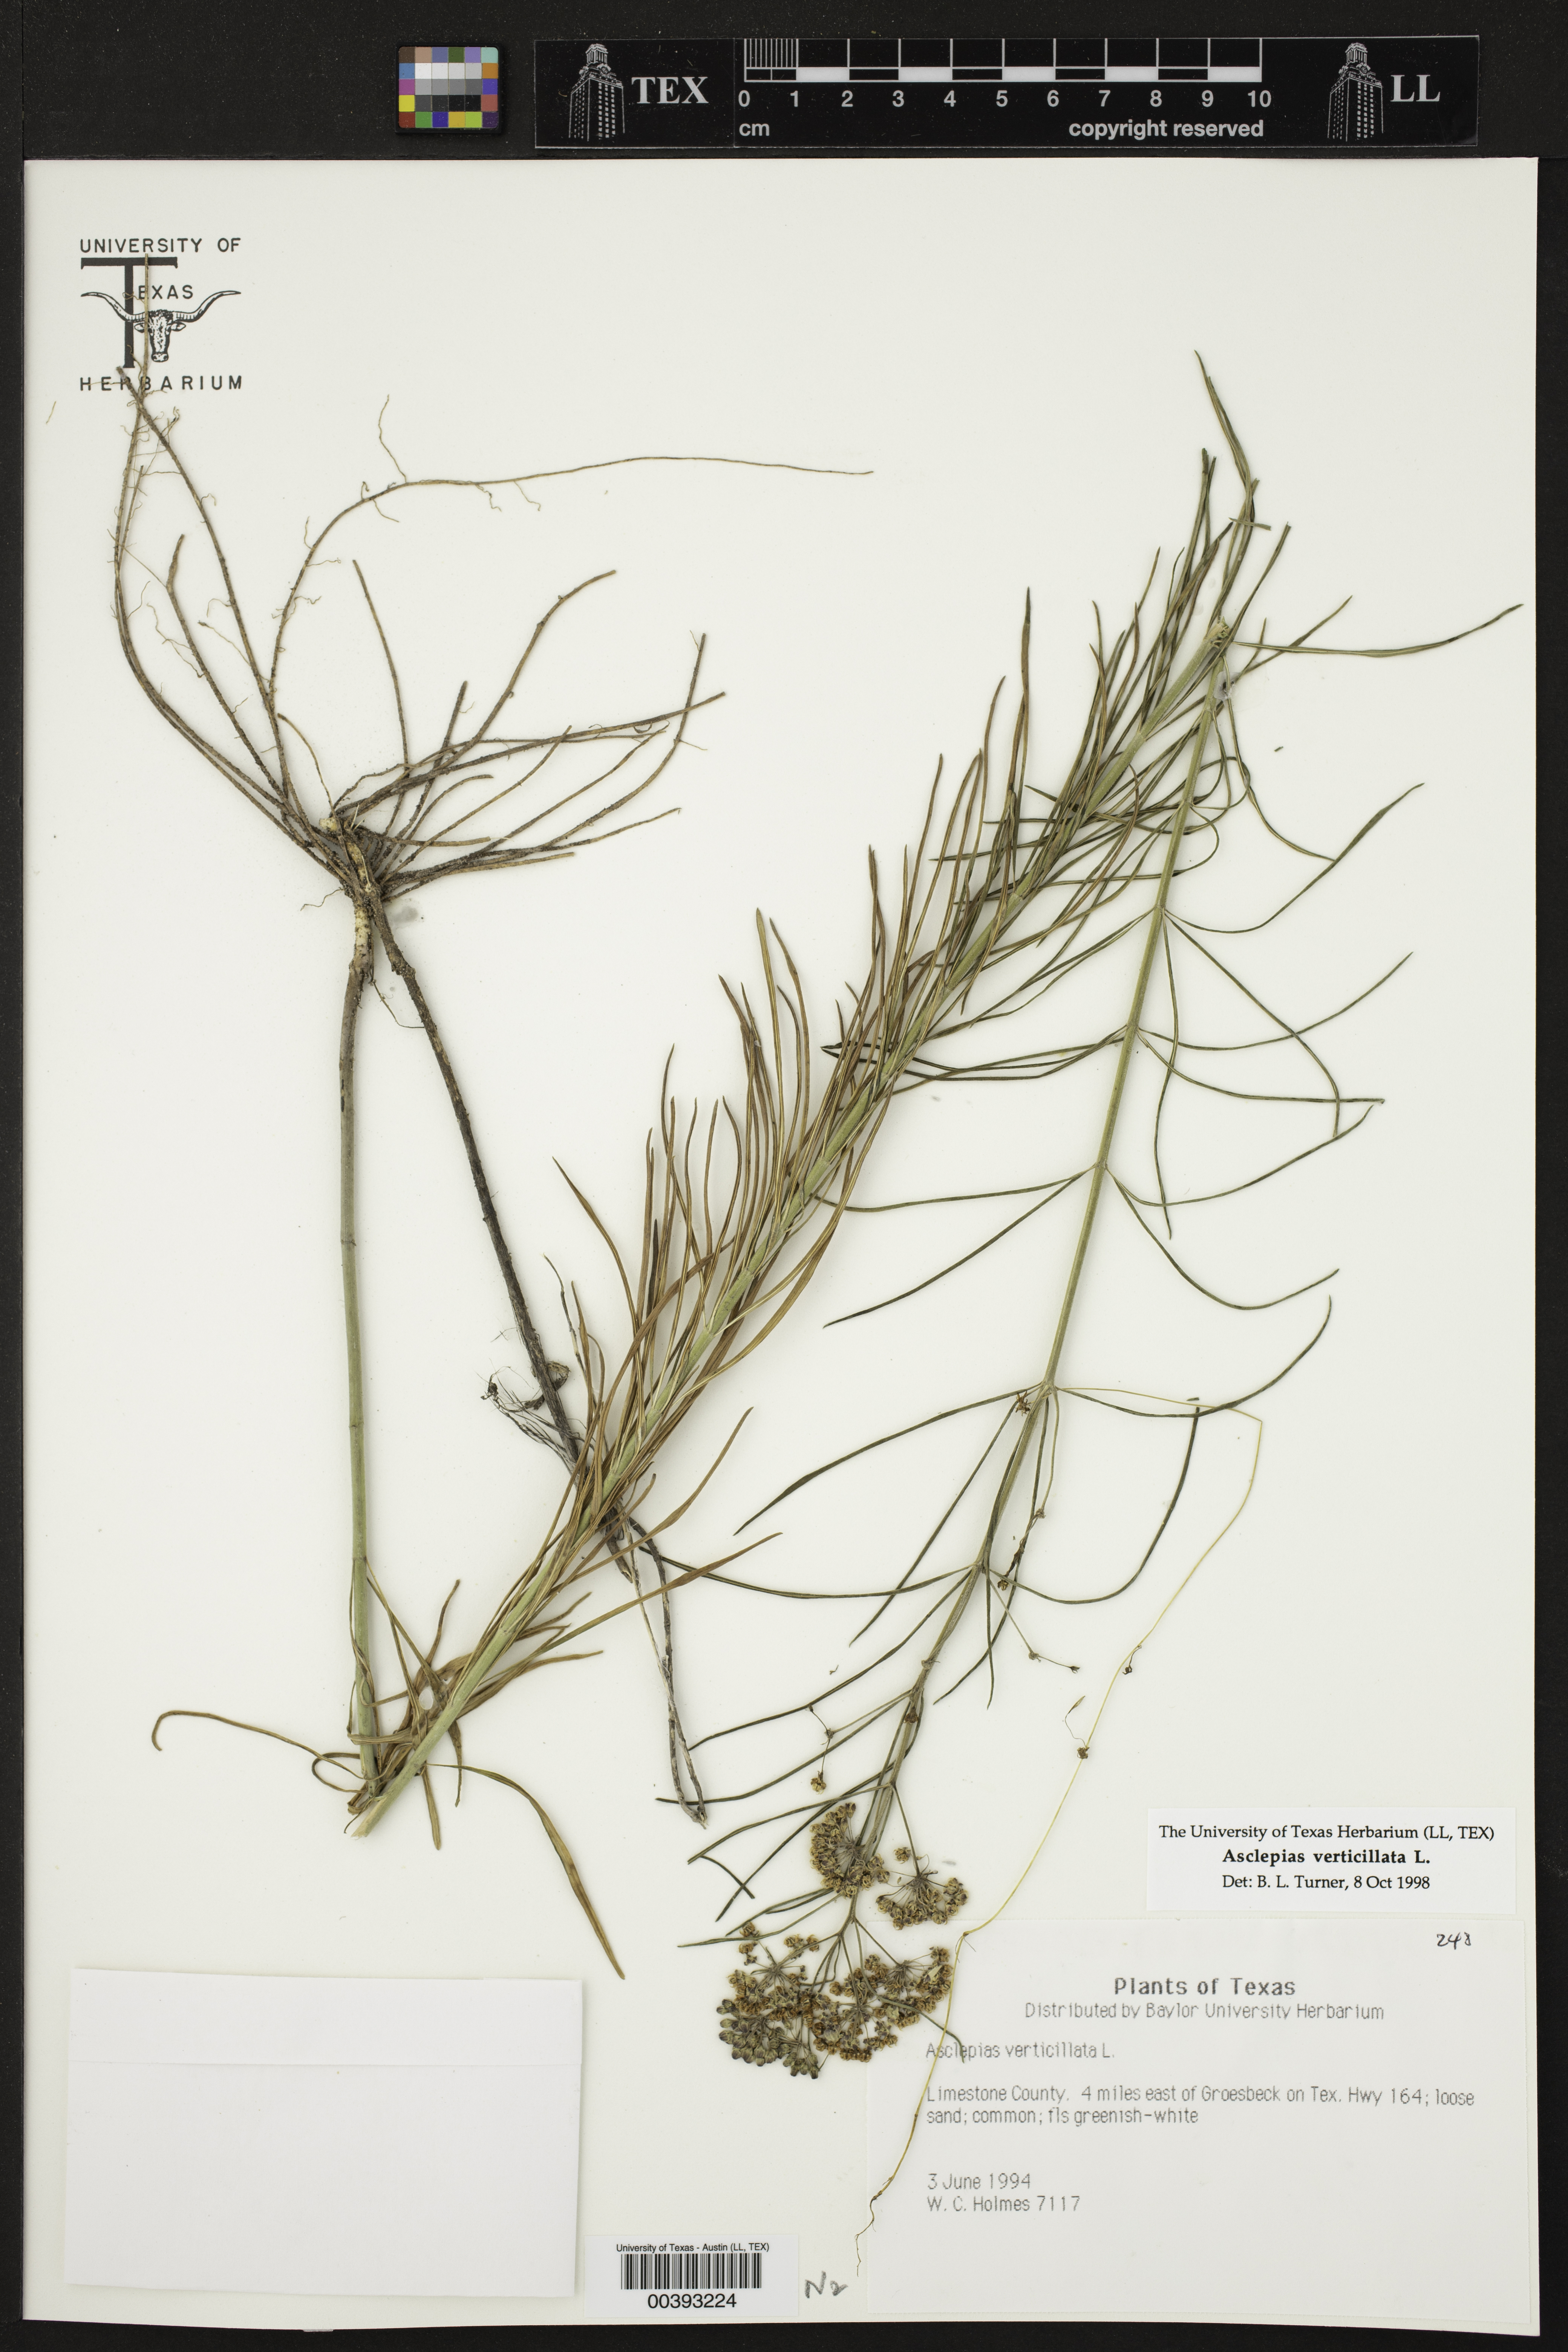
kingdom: Plantae
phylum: Tracheophyta
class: Magnoliopsida
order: Gentianales
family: Apocynaceae
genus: Asclepias
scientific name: Asclepias verticillata
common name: Eastern whorled milkweed
